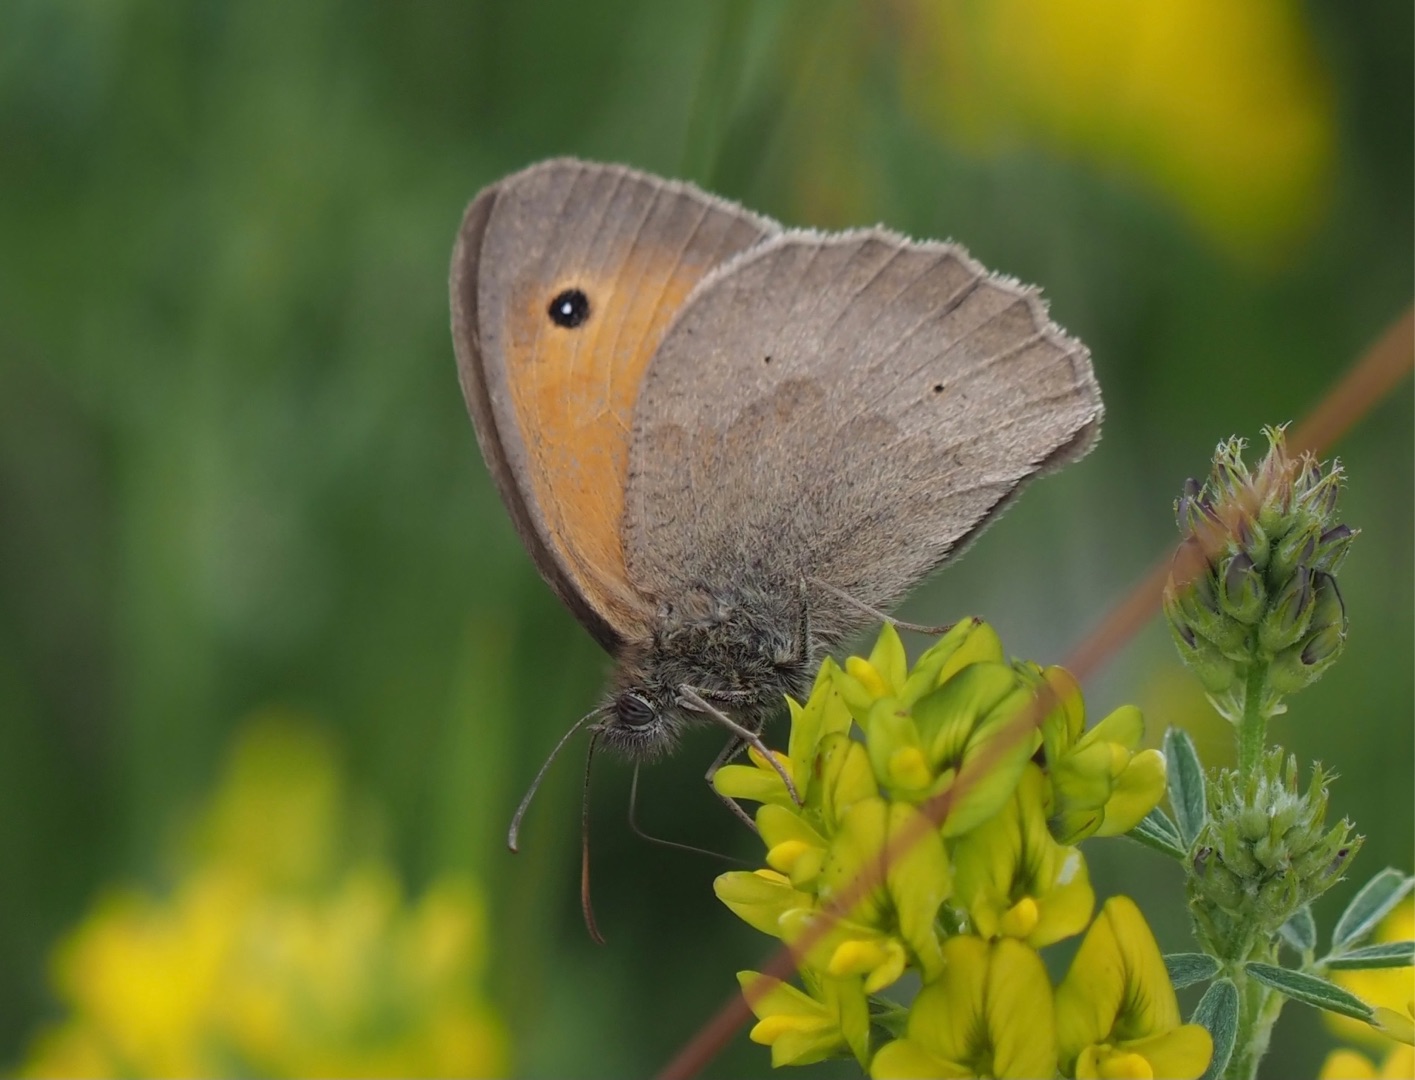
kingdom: Animalia
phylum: Arthropoda
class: Insecta
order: Lepidoptera
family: Nymphalidae
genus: Maniola
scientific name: Maniola jurtina
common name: Græsrandøje
